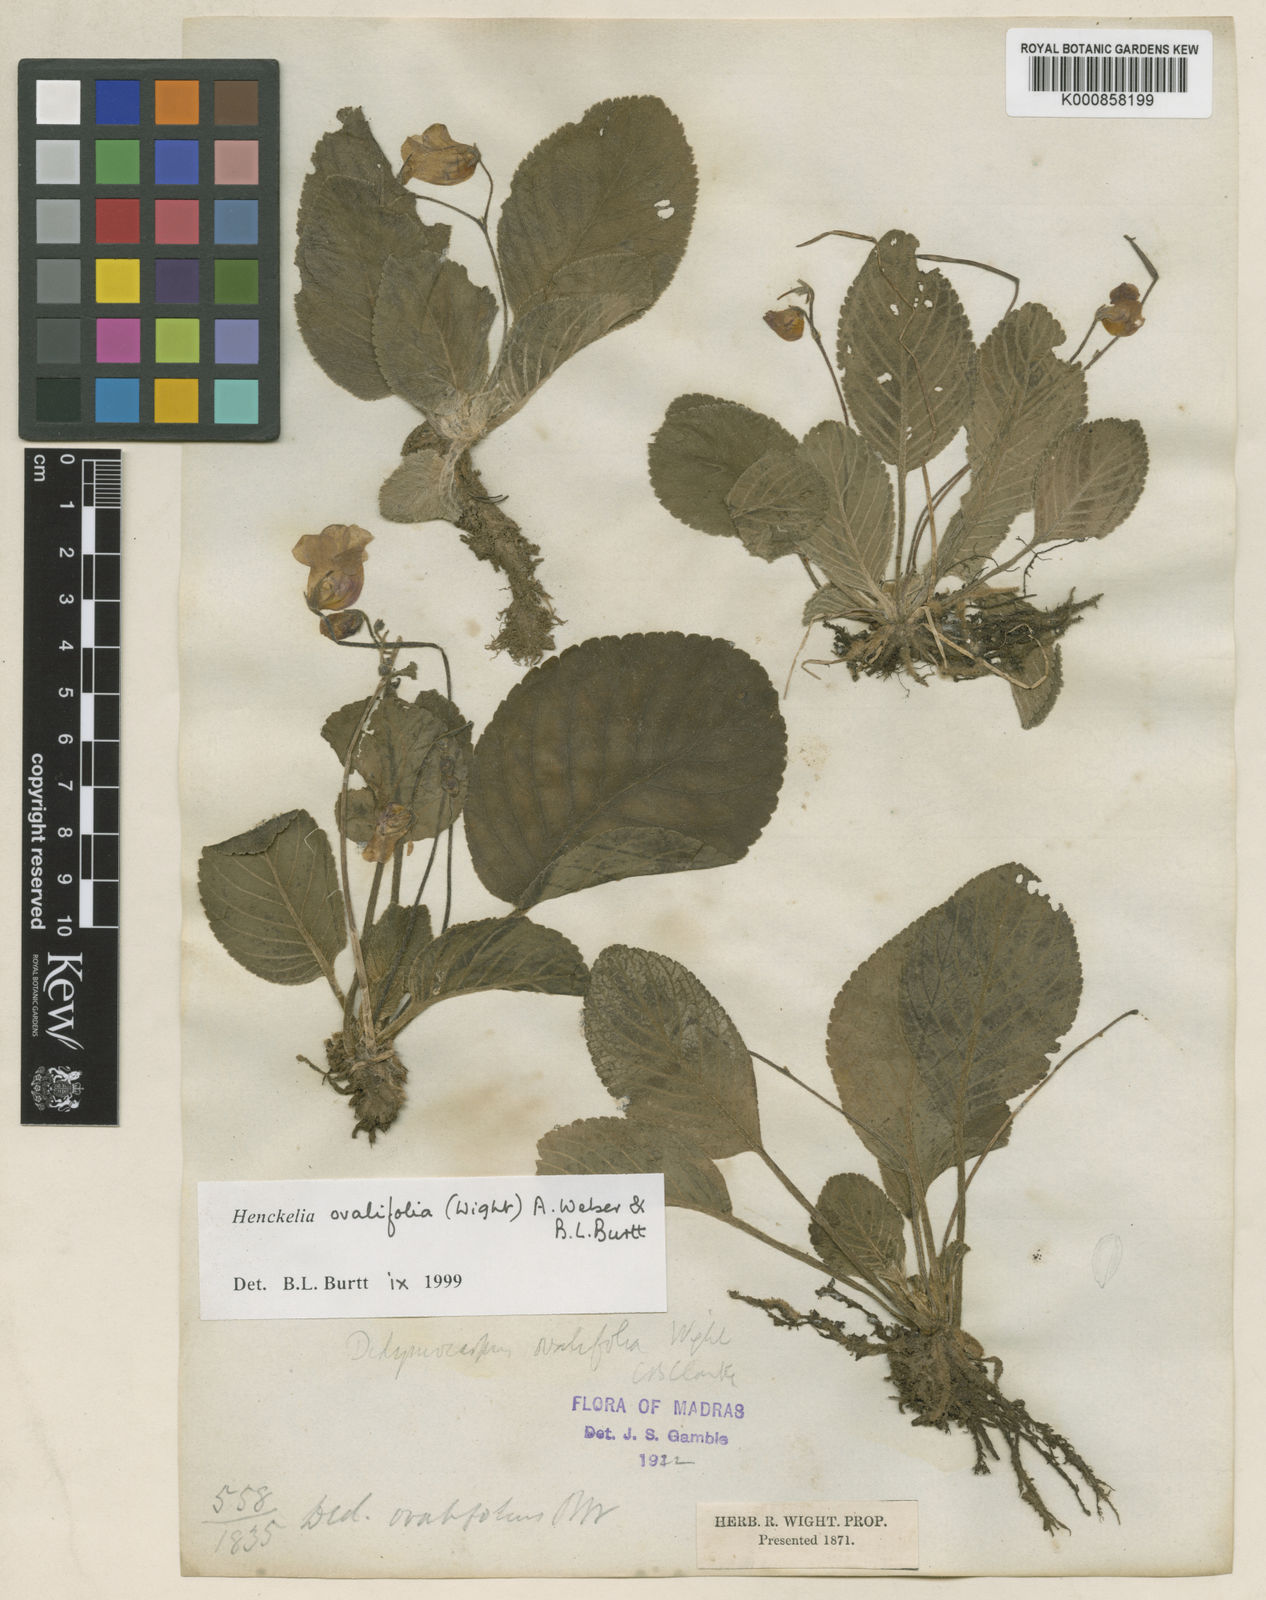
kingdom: Plantae
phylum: Tracheophyta
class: Magnoliopsida
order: Lamiales
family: Gesneriaceae
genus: Henckelia
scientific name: Henckelia ovalifolia
